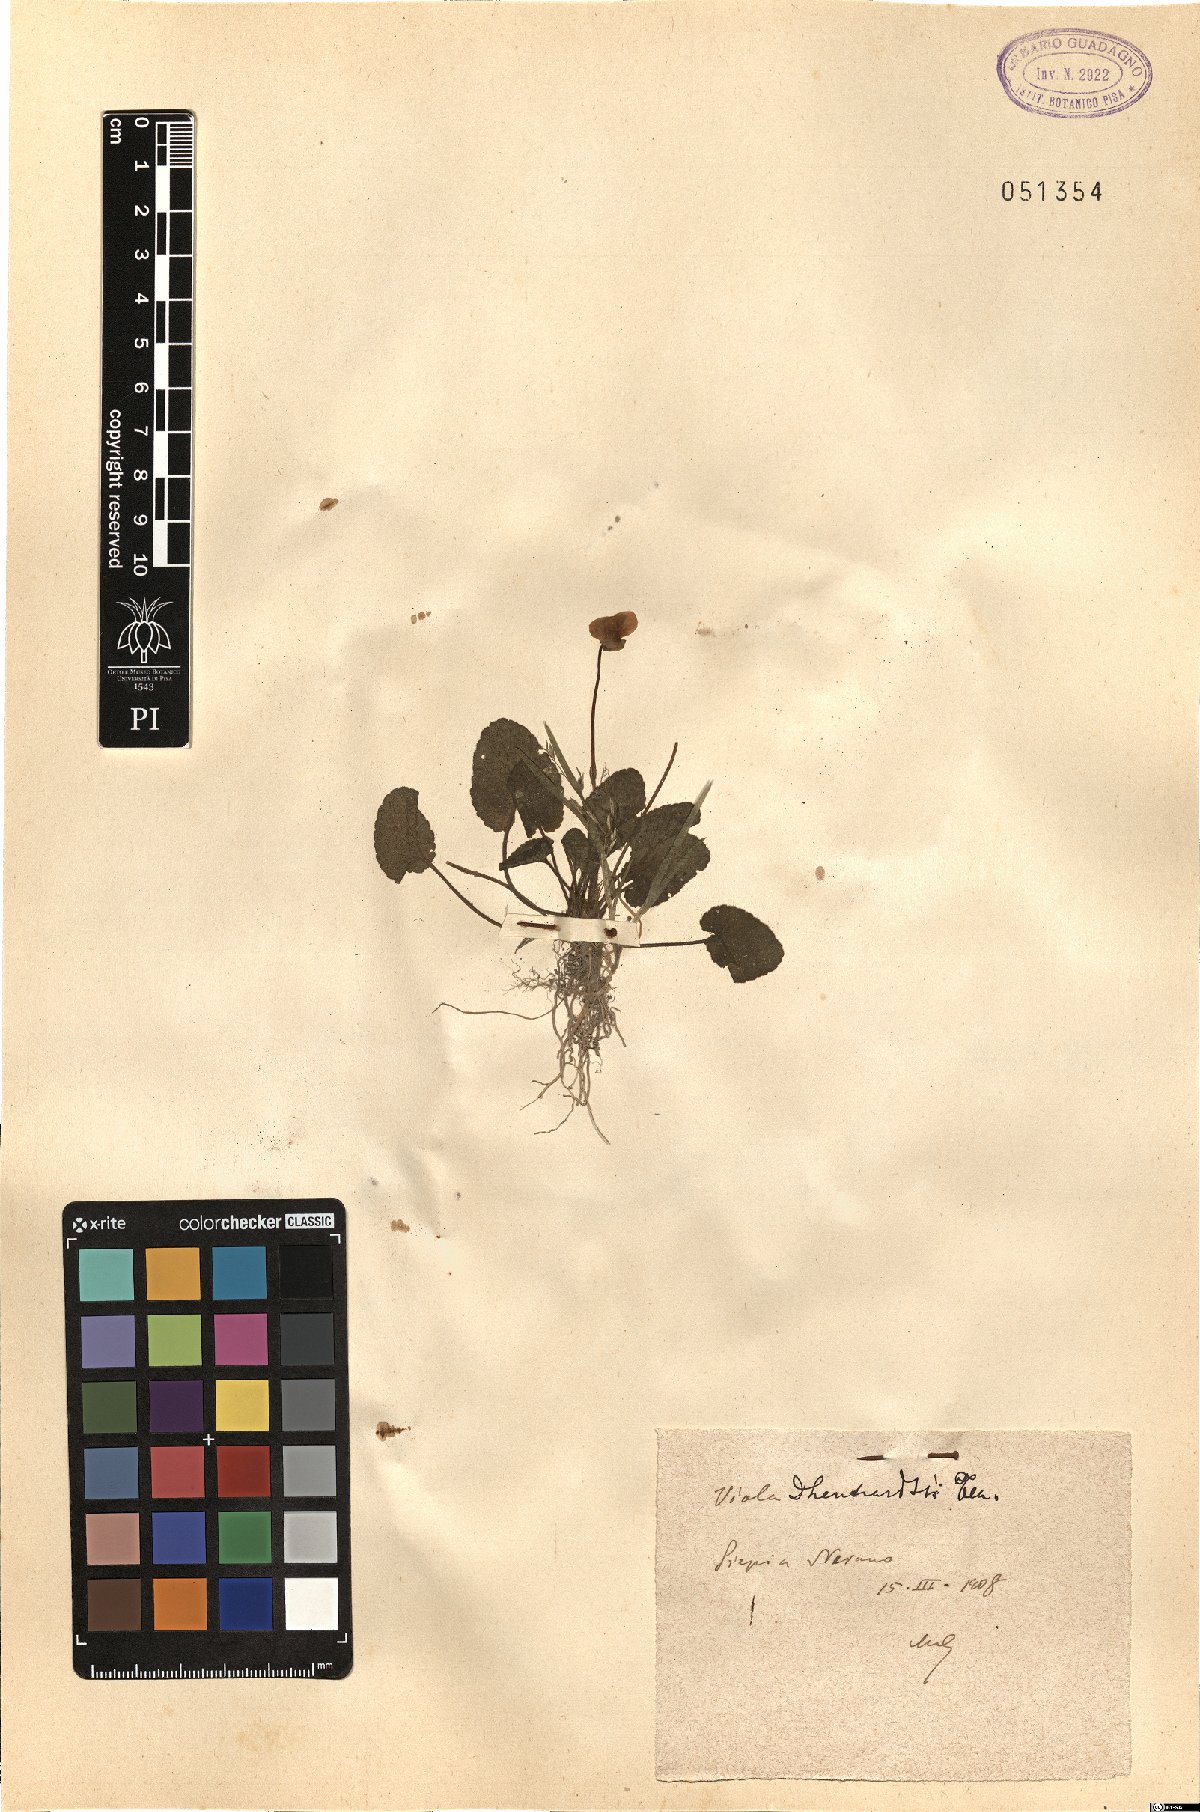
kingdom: Plantae
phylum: Tracheophyta
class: Magnoliopsida
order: Malpighiales
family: Violaceae
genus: Viola
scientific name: Viola alba
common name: White violet
